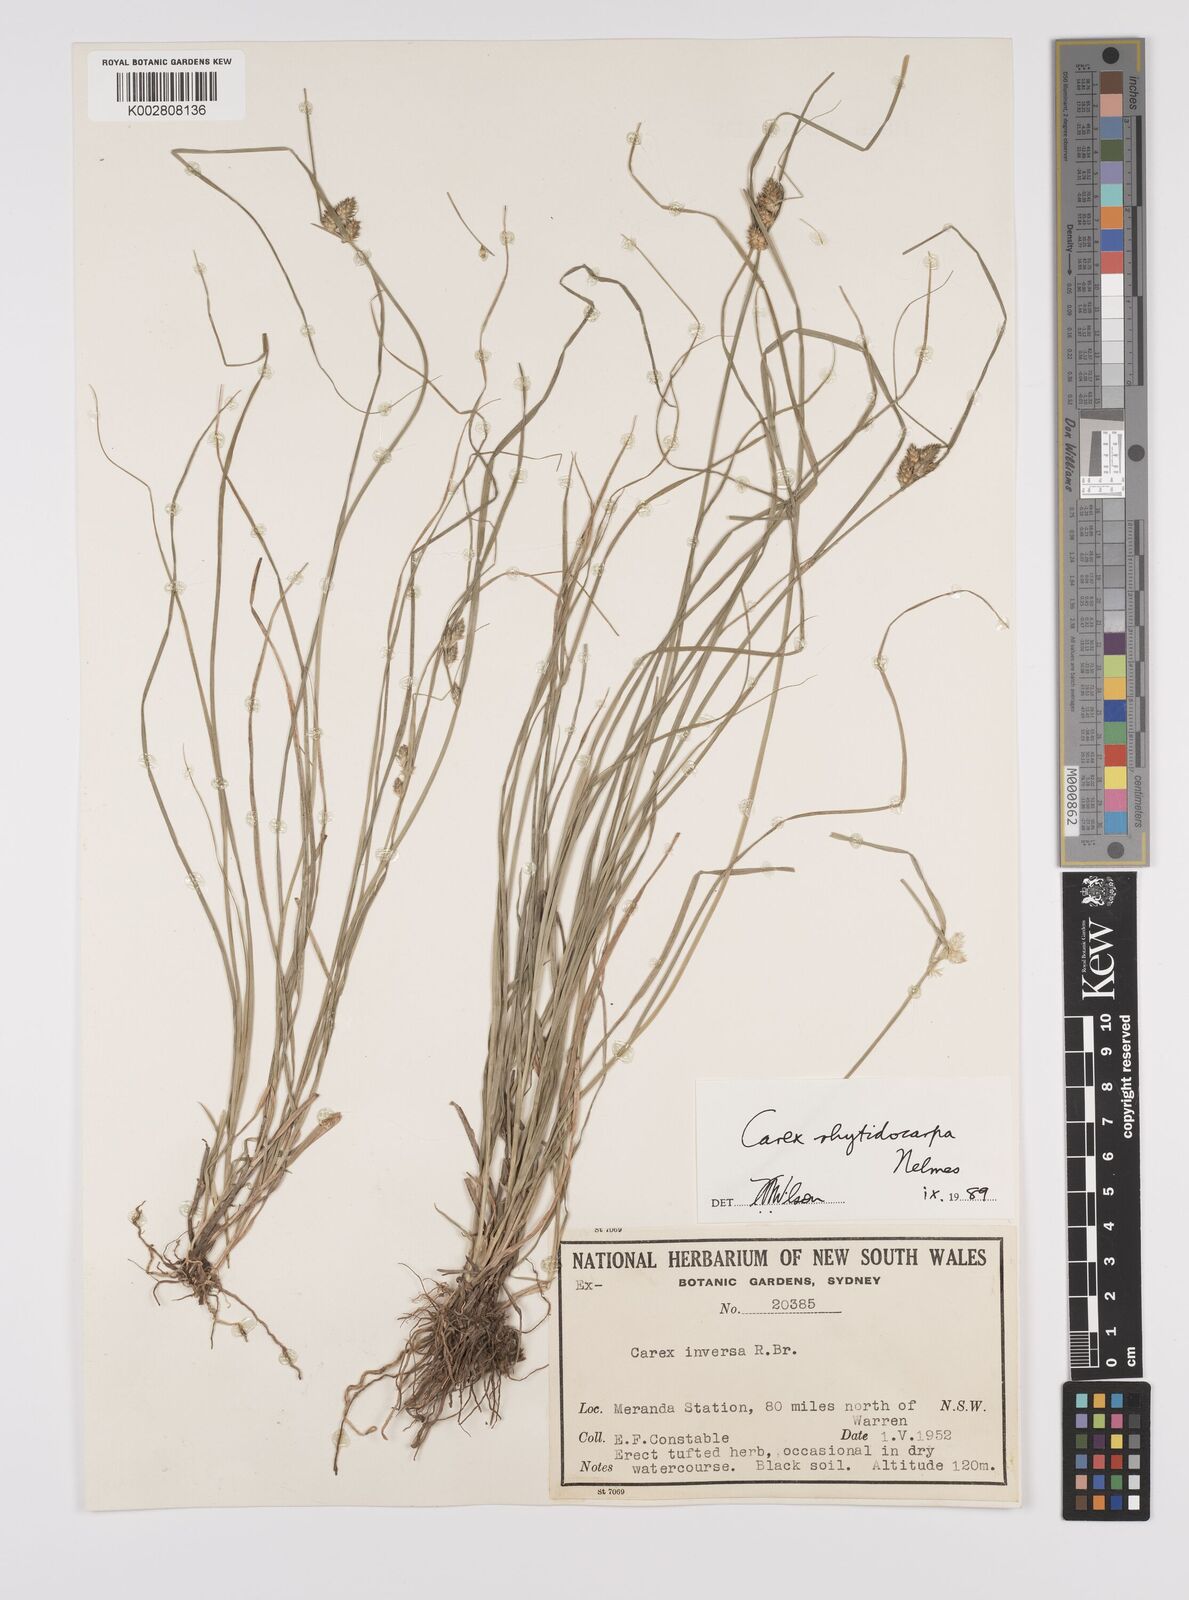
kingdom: Plantae
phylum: Tracheophyta
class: Liliopsida
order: Poales
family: Cyperaceae
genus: Carex
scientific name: Carex inversa
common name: Knob sedge
